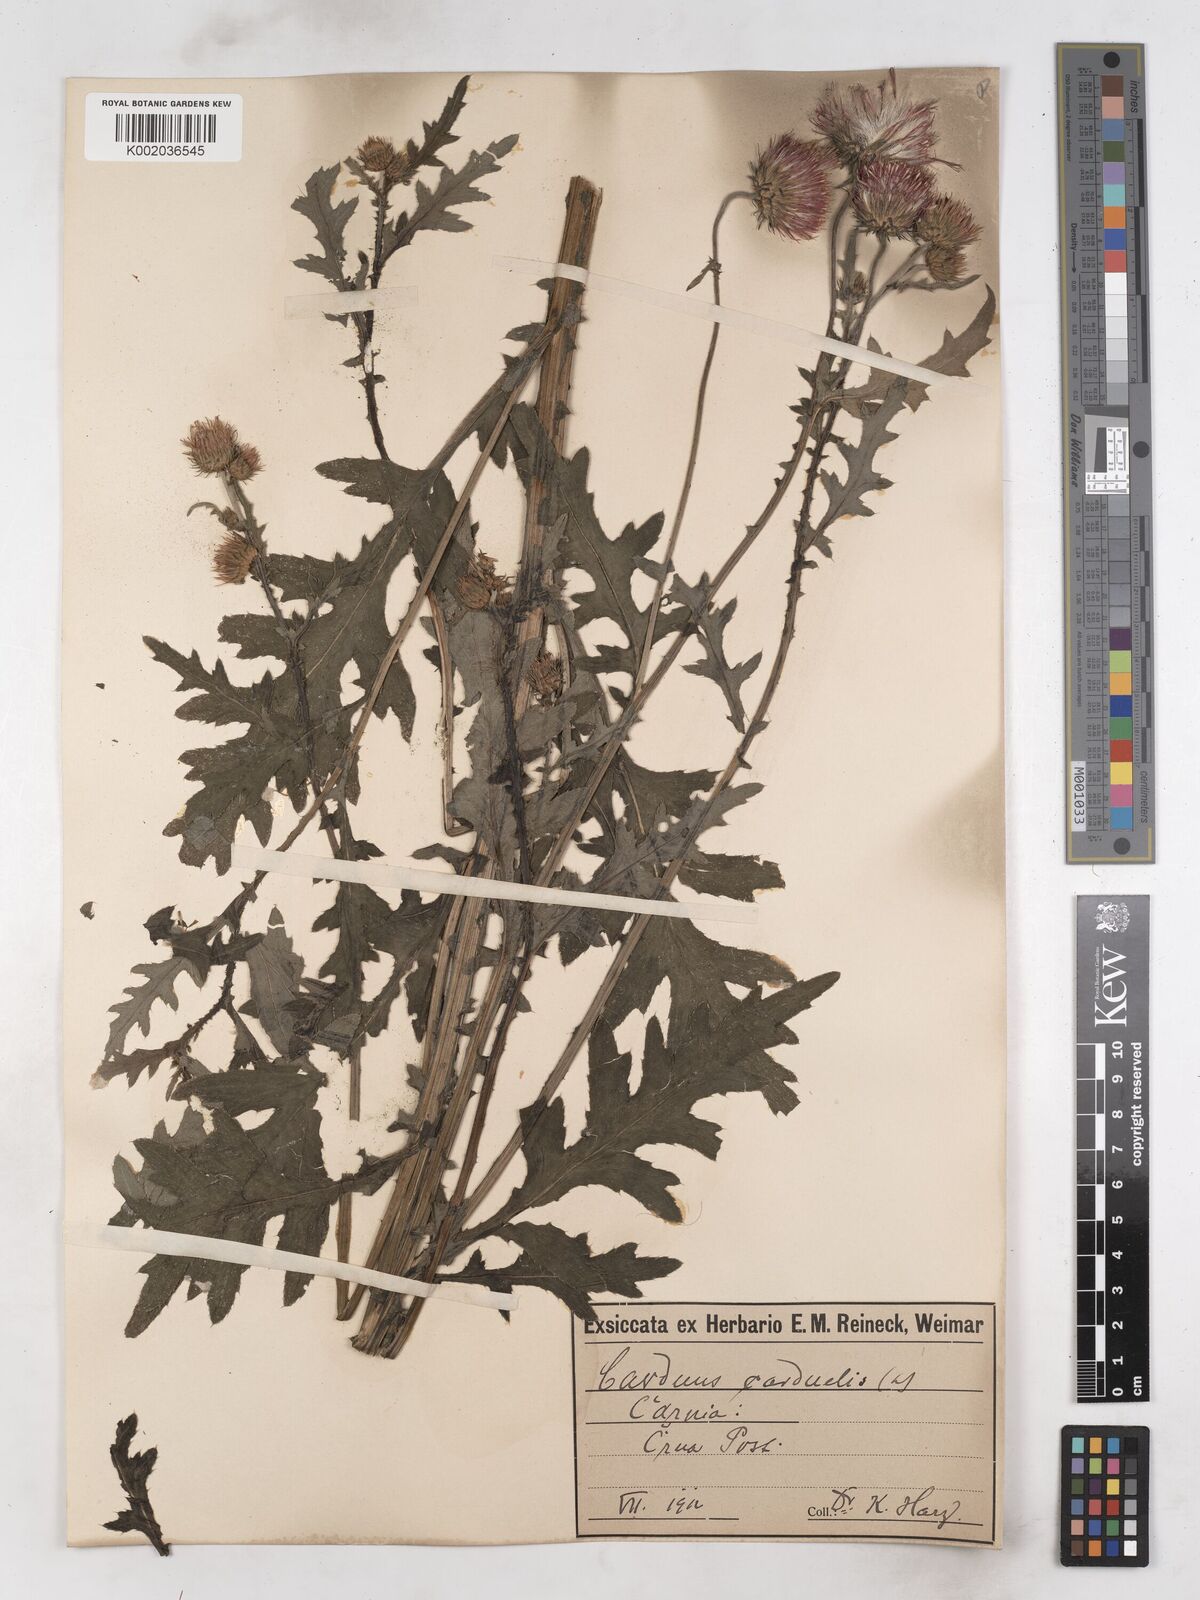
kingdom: Plantae
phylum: Tracheophyta
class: Magnoliopsida
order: Asterales
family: Asteraceae
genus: Carduus
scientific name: Carduus carduelis
